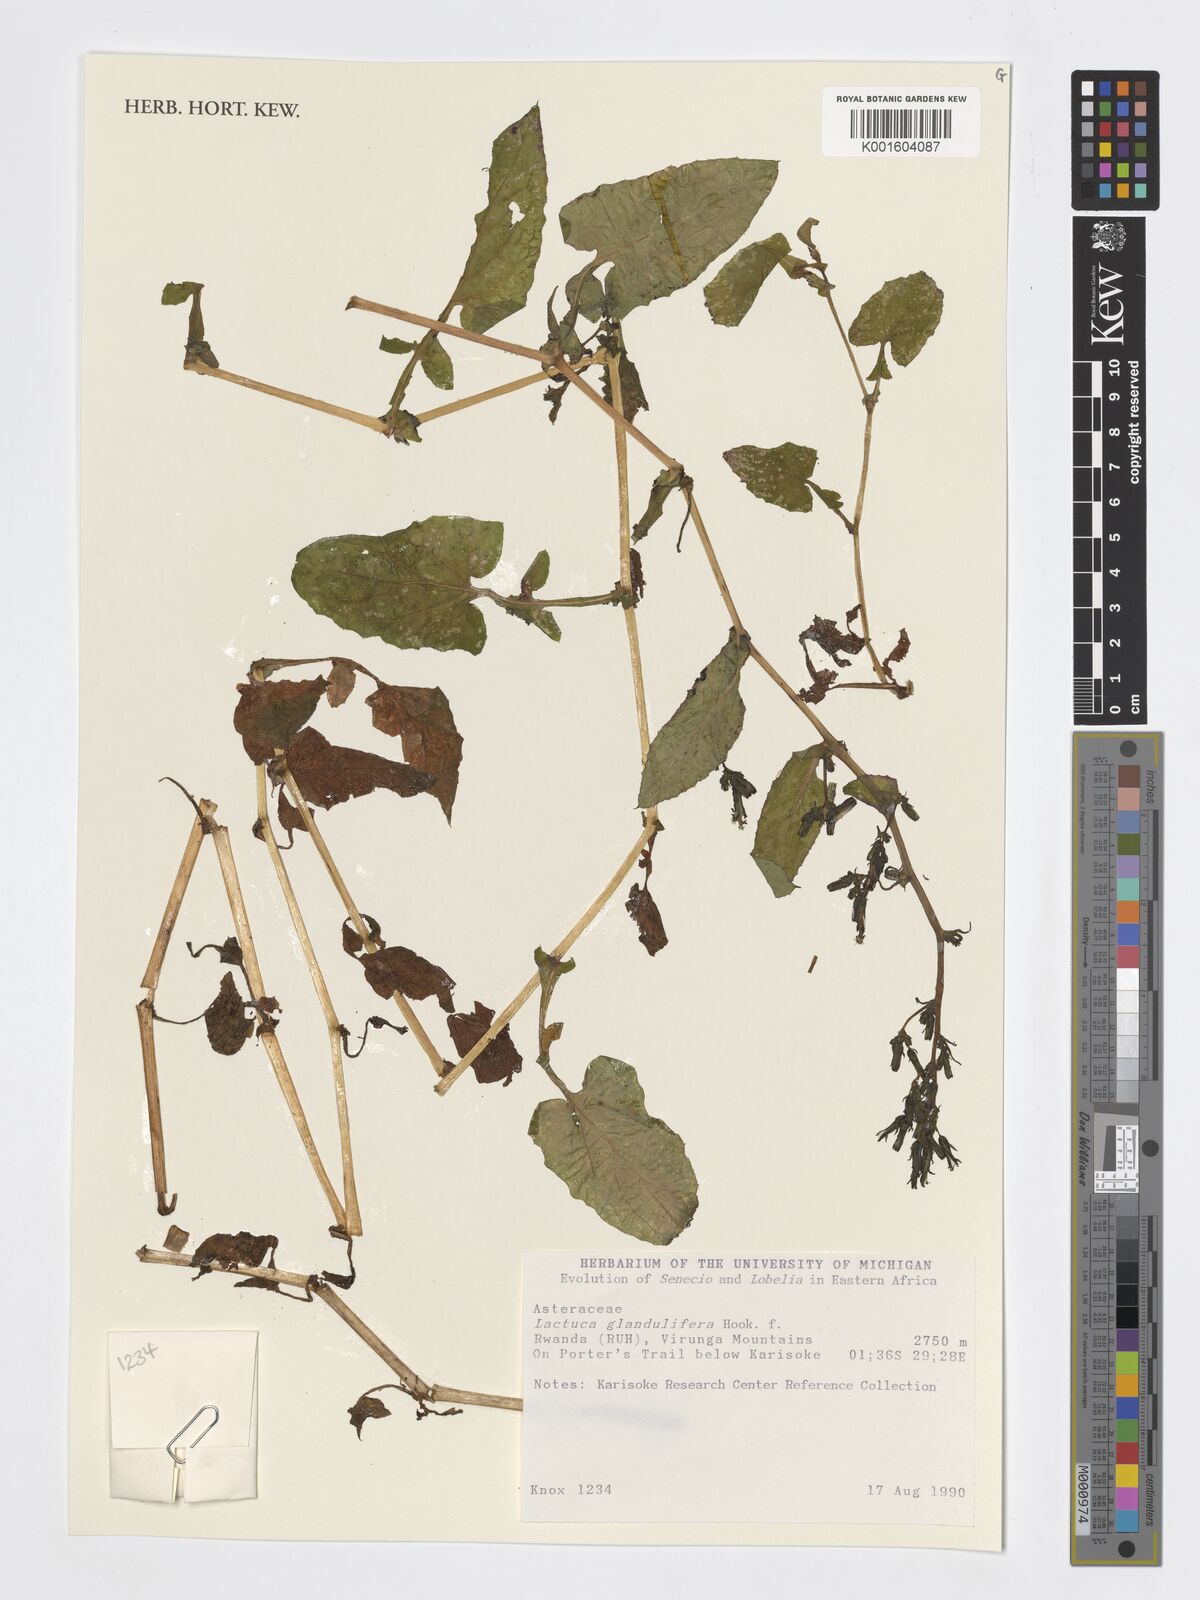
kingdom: Plantae
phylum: Tracheophyta
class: Magnoliopsida
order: Asterales
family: Asteraceae
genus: Lactuca
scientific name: Lactuca glandulifera
